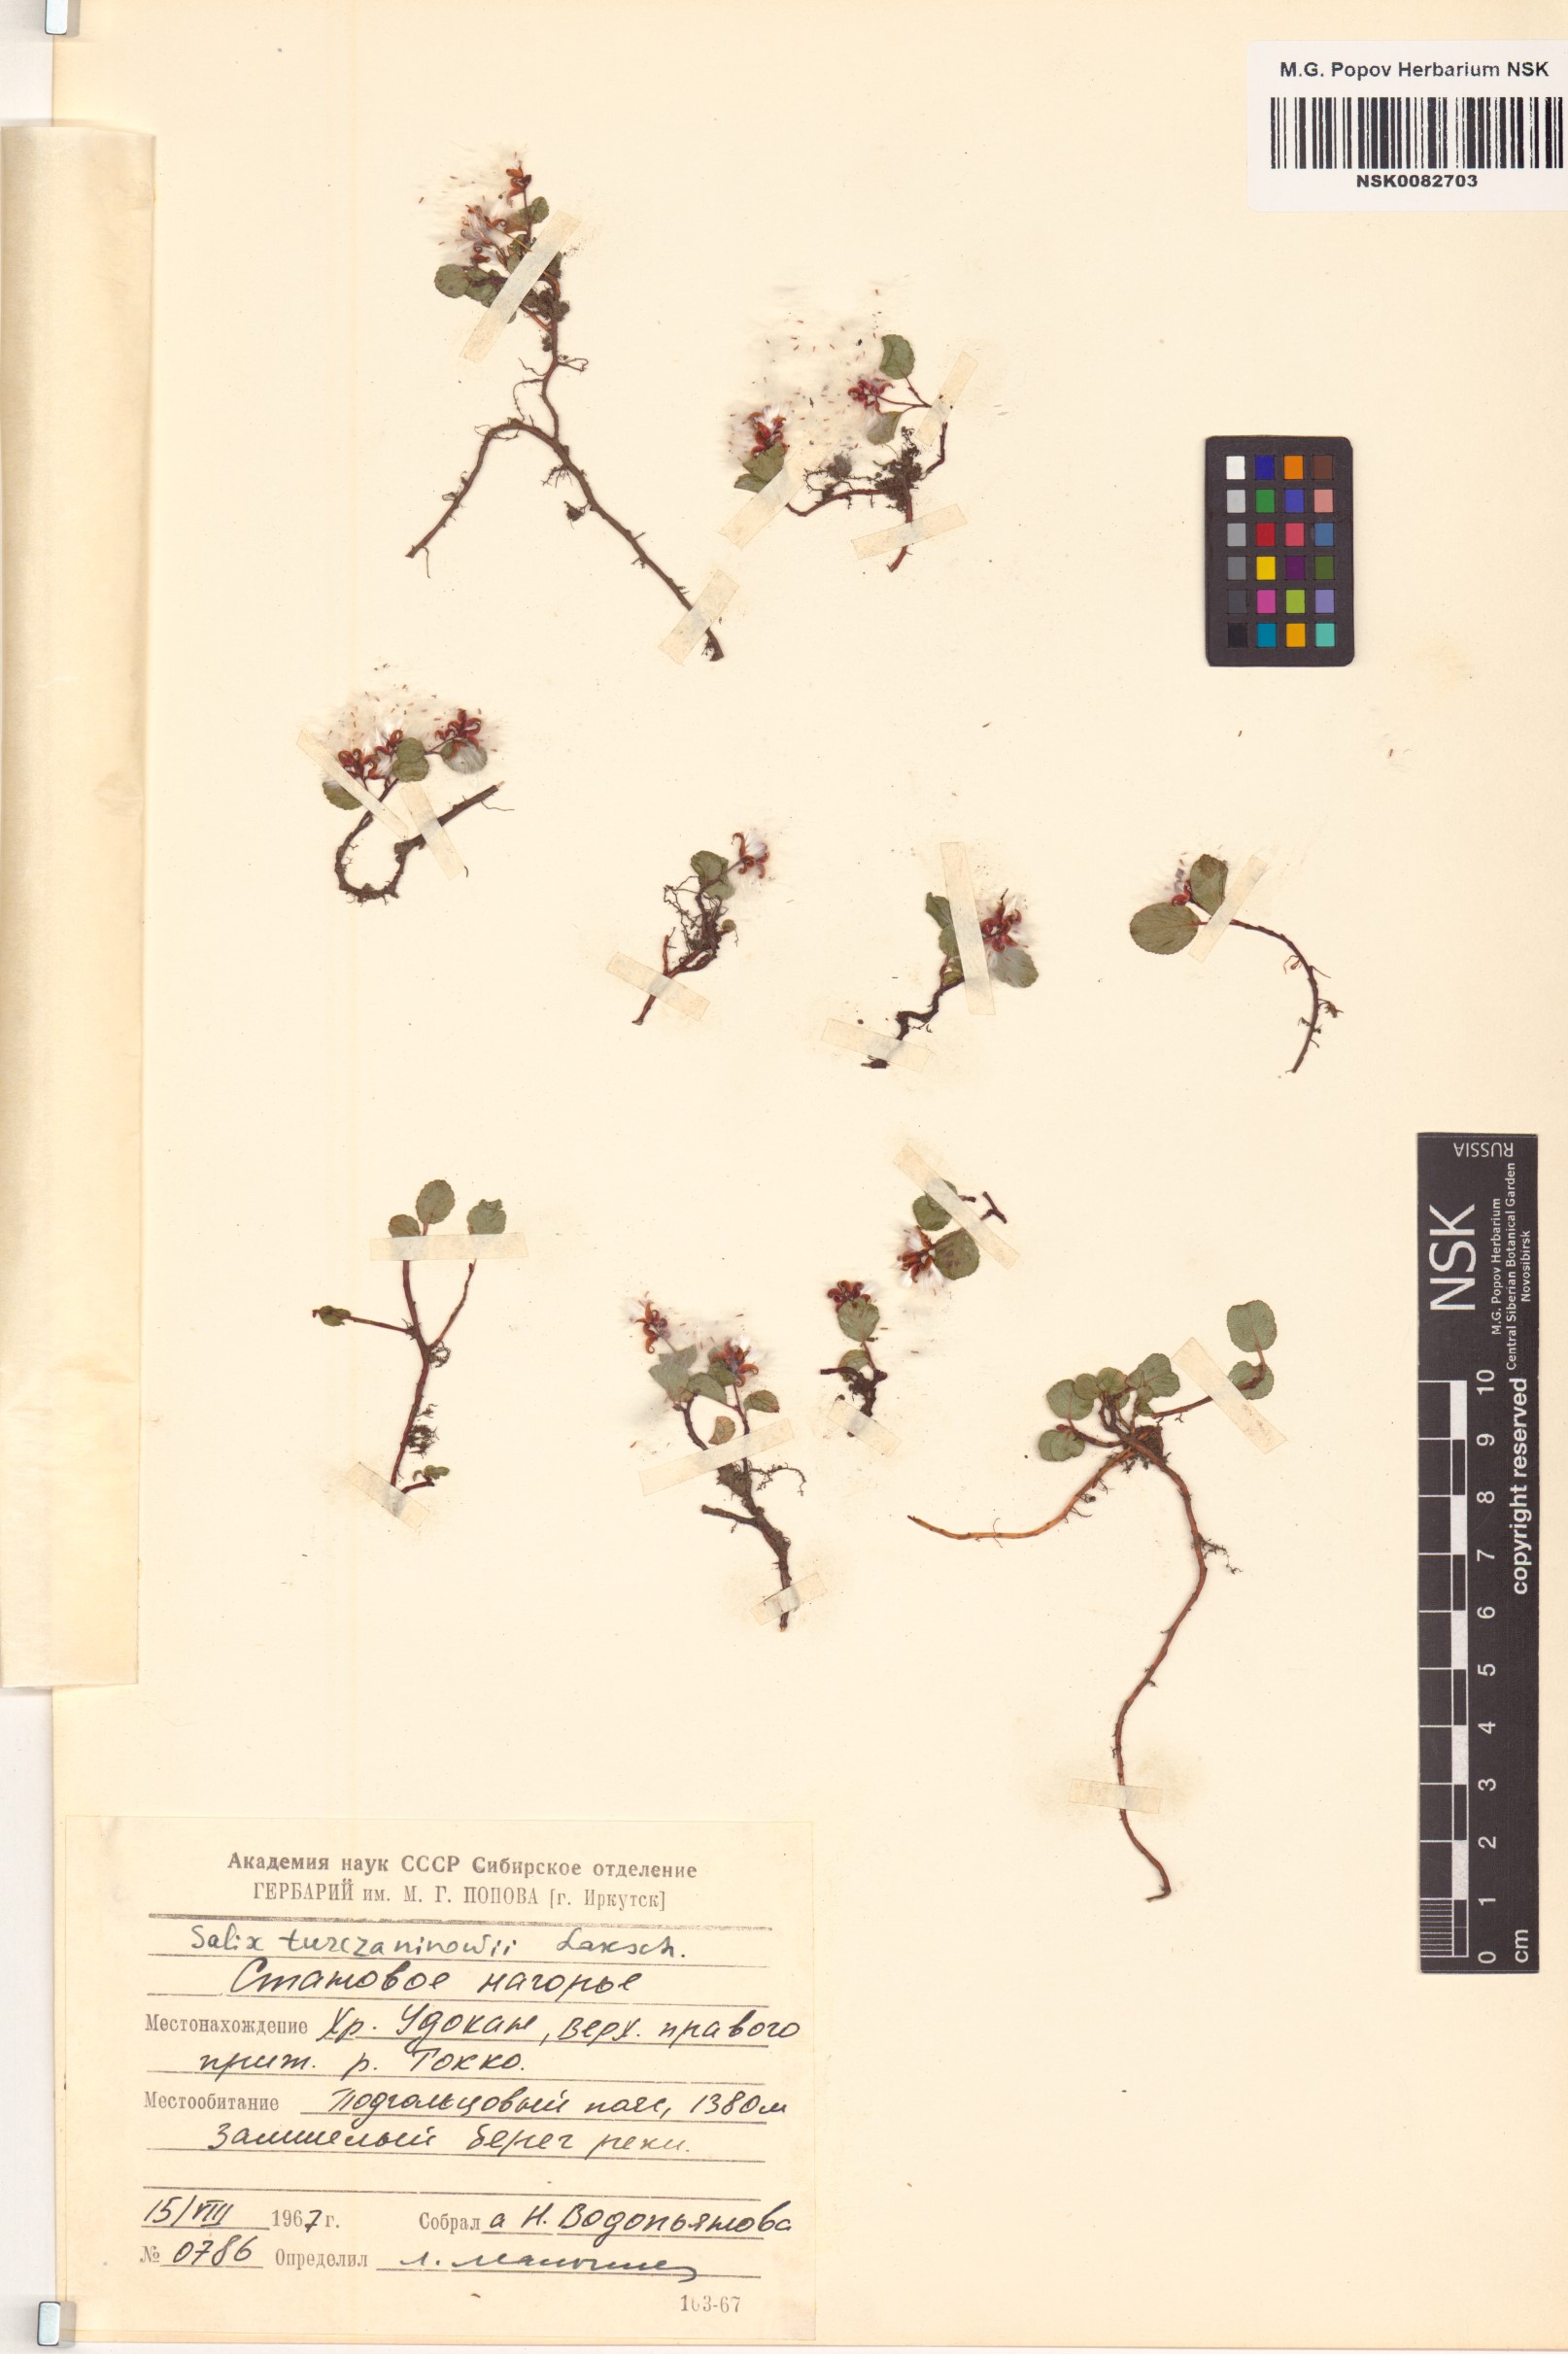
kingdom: Plantae
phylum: Tracheophyta
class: Magnoliopsida
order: Malpighiales
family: Salicaceae
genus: Salix
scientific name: Salix turczaninowii
